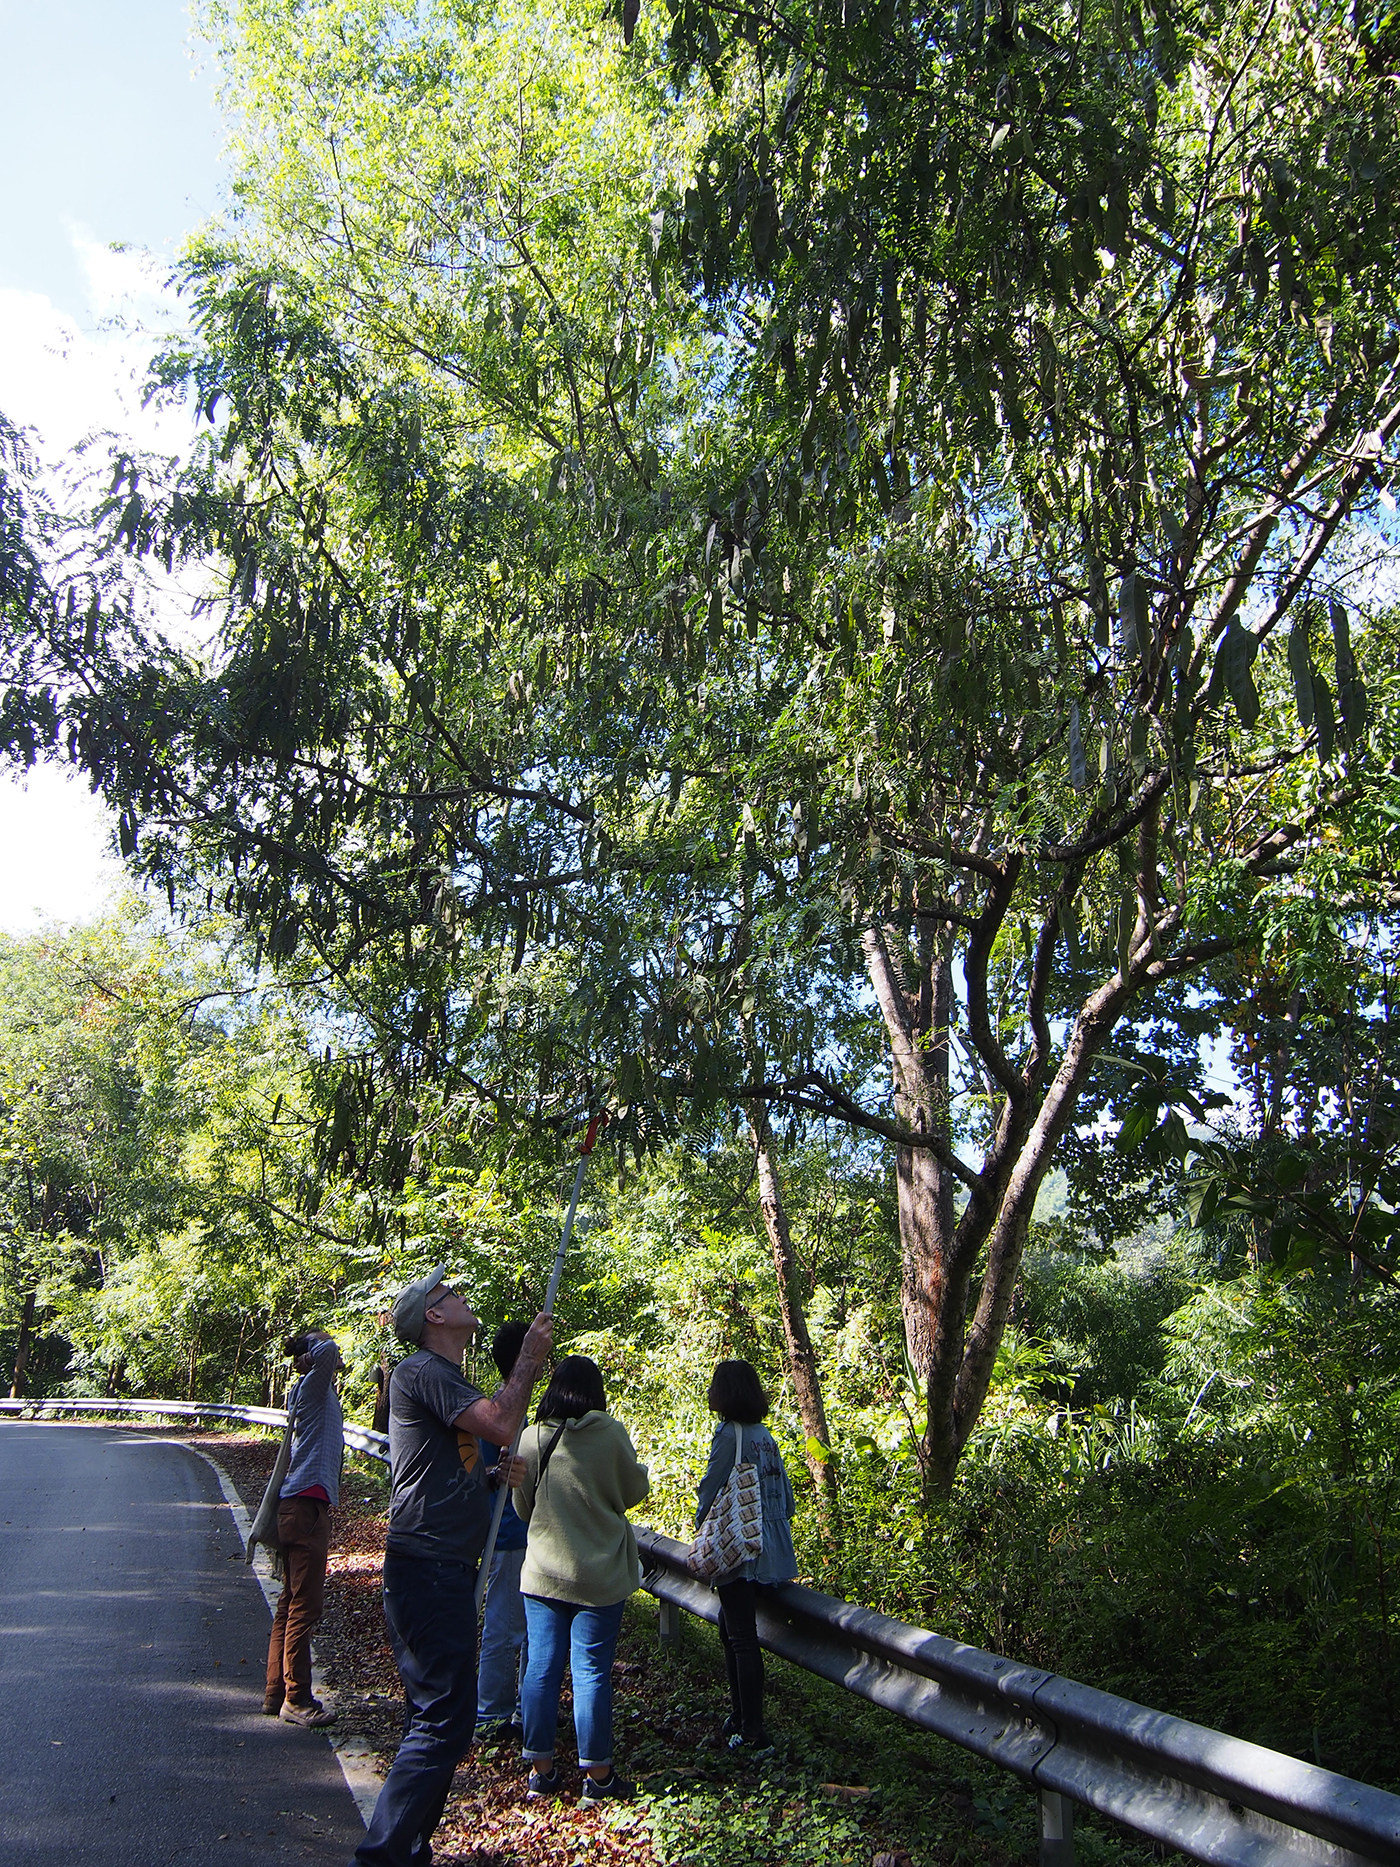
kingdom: Plantae
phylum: Tracheophyta
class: Magnoliopsida
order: Fabales
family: Fabaceae
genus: Albizia
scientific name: Albizia lebbekoides
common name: Indian albizia
